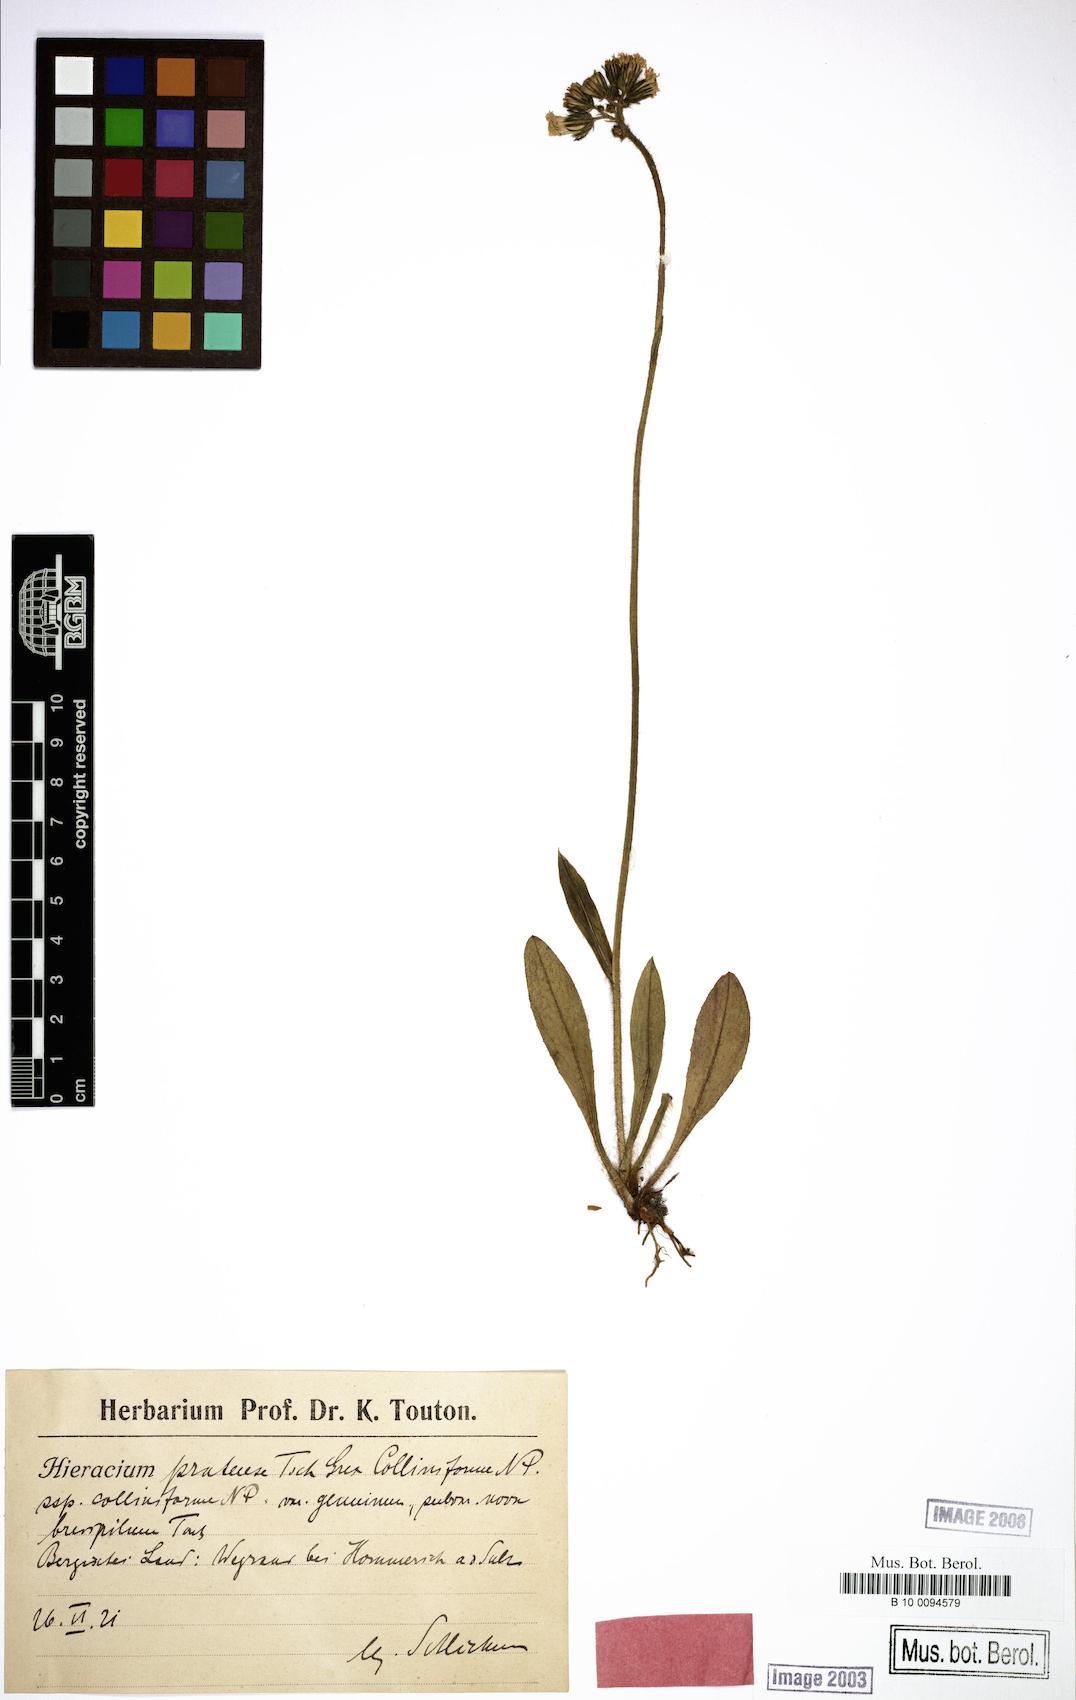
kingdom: Plantae
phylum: Tracheophyta
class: Magnoliopsida
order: Asterales
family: Asteraceae
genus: Pilosella
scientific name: Pilosella onegensis
